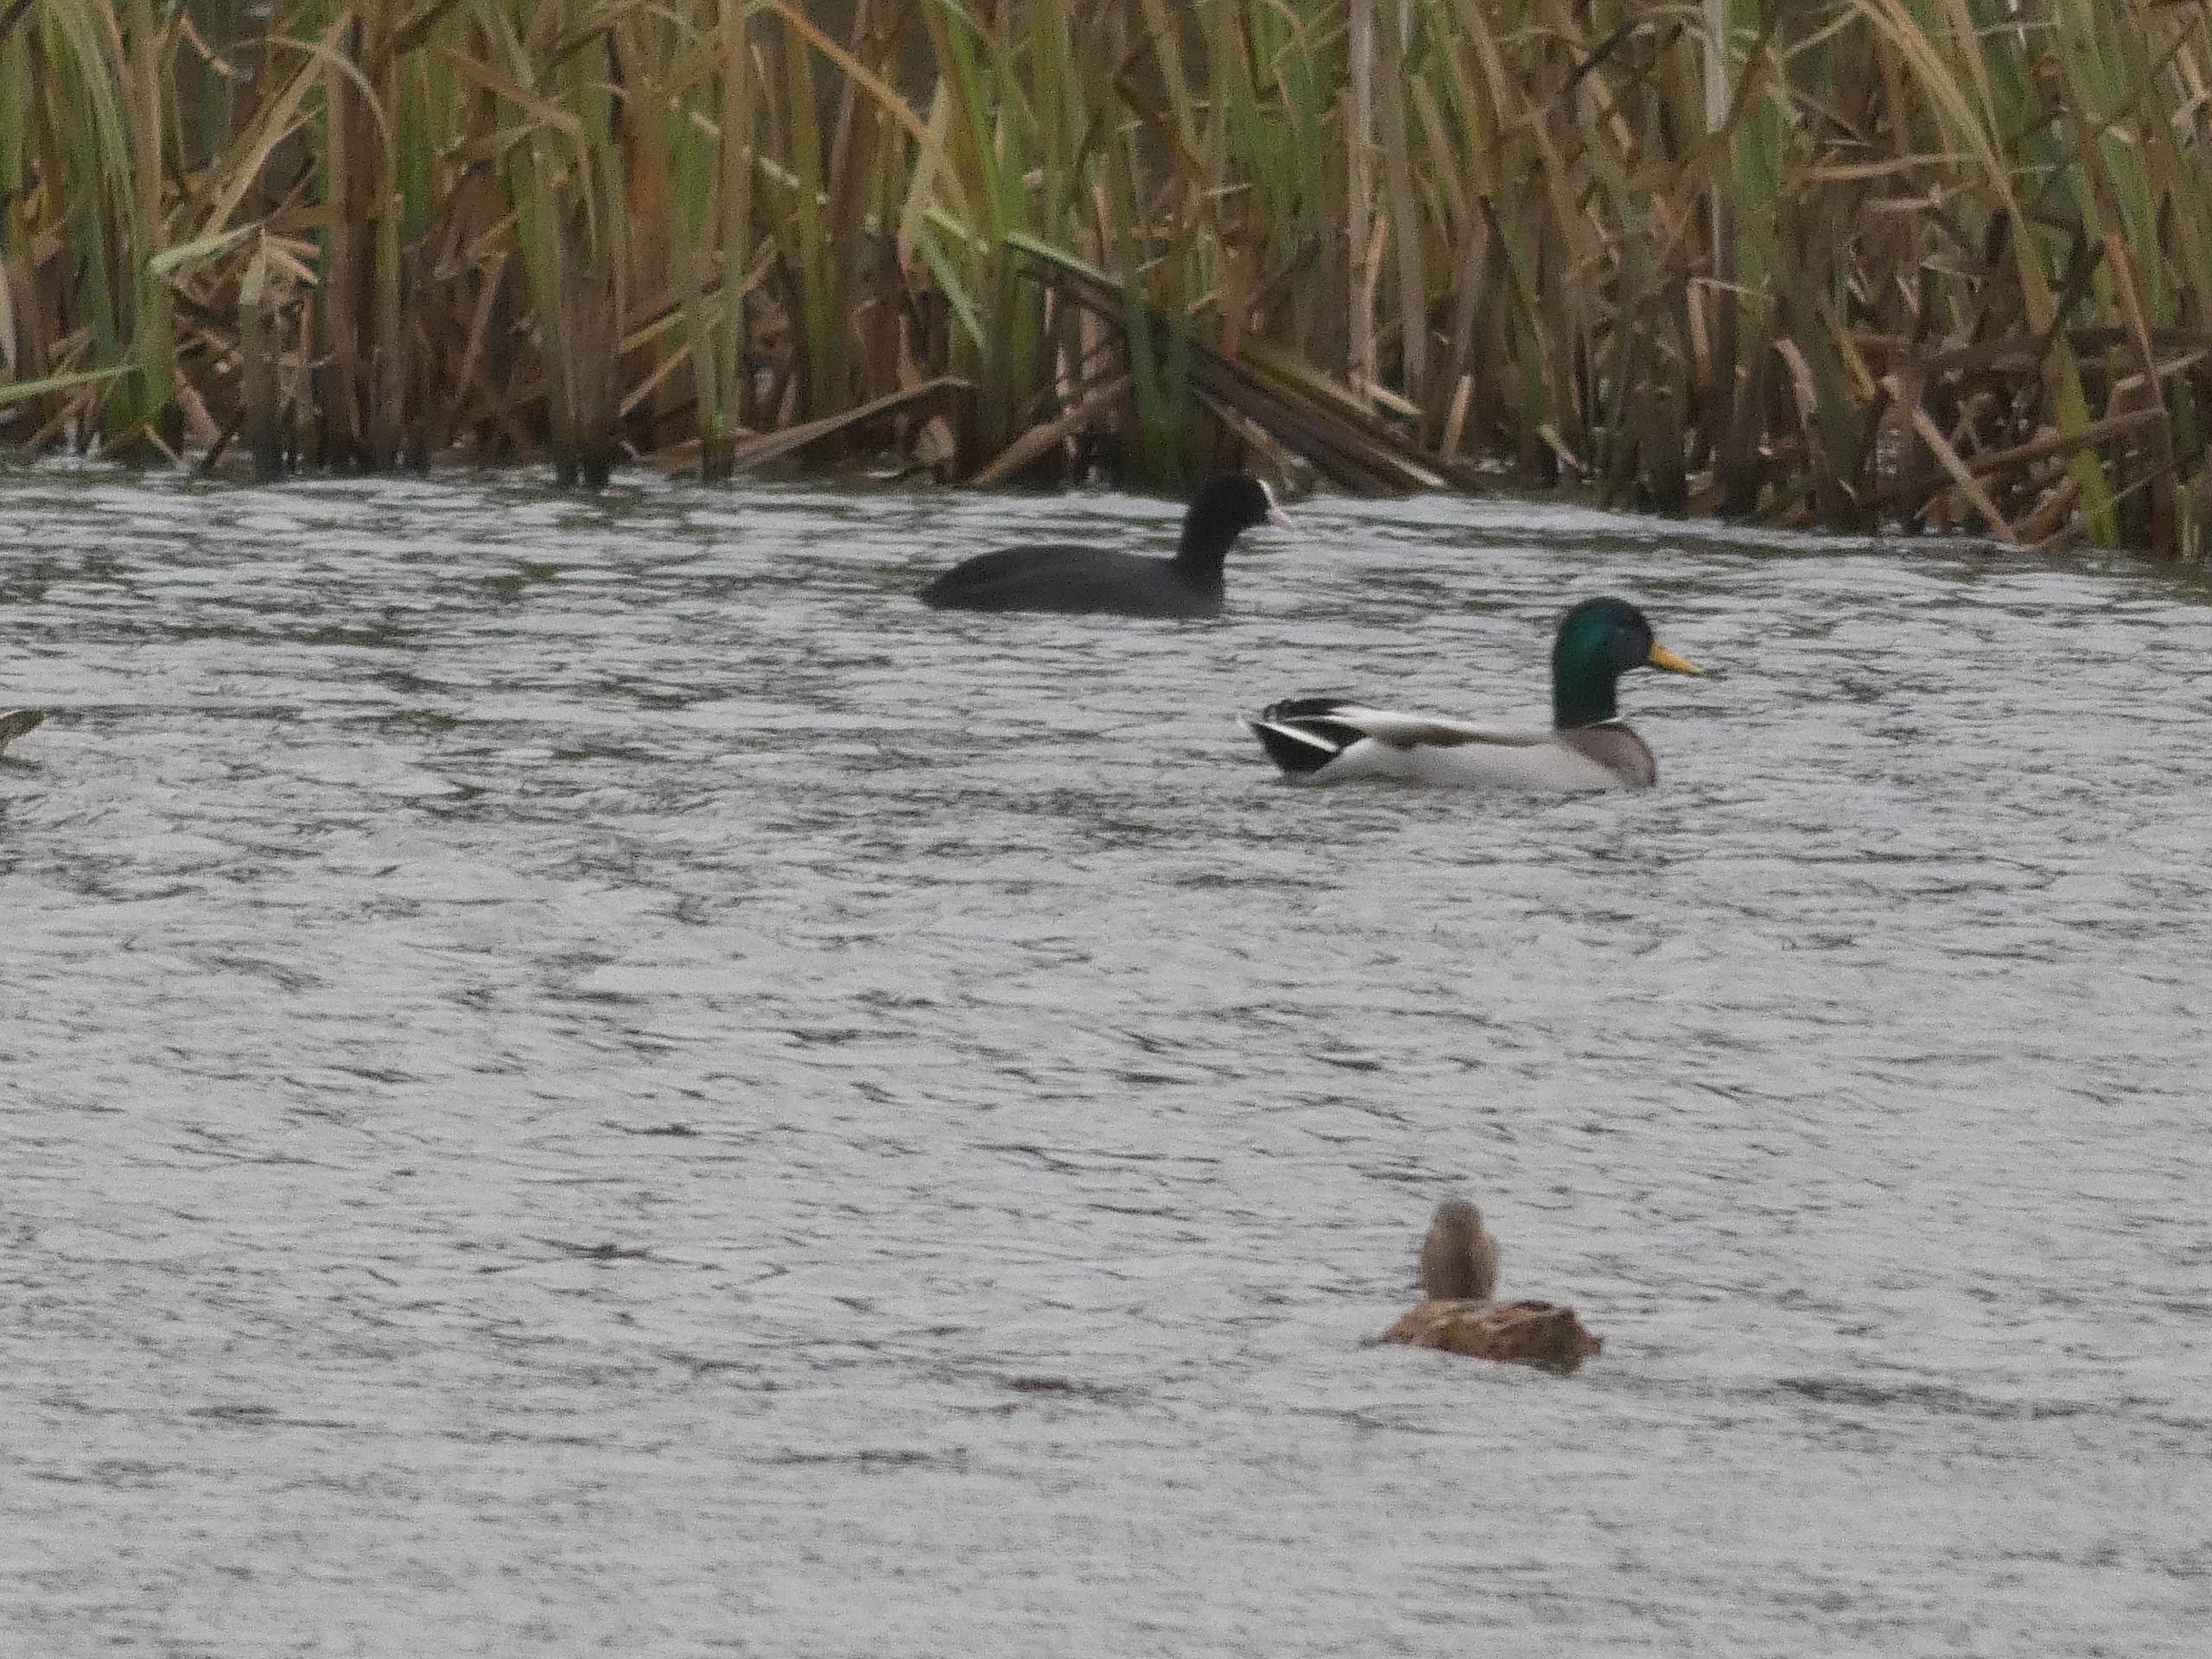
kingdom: Animalia
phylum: Chordata
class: Aves
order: Gruiformes
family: Rallidae
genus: Fulica
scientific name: Fulica atra
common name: Blishøne
